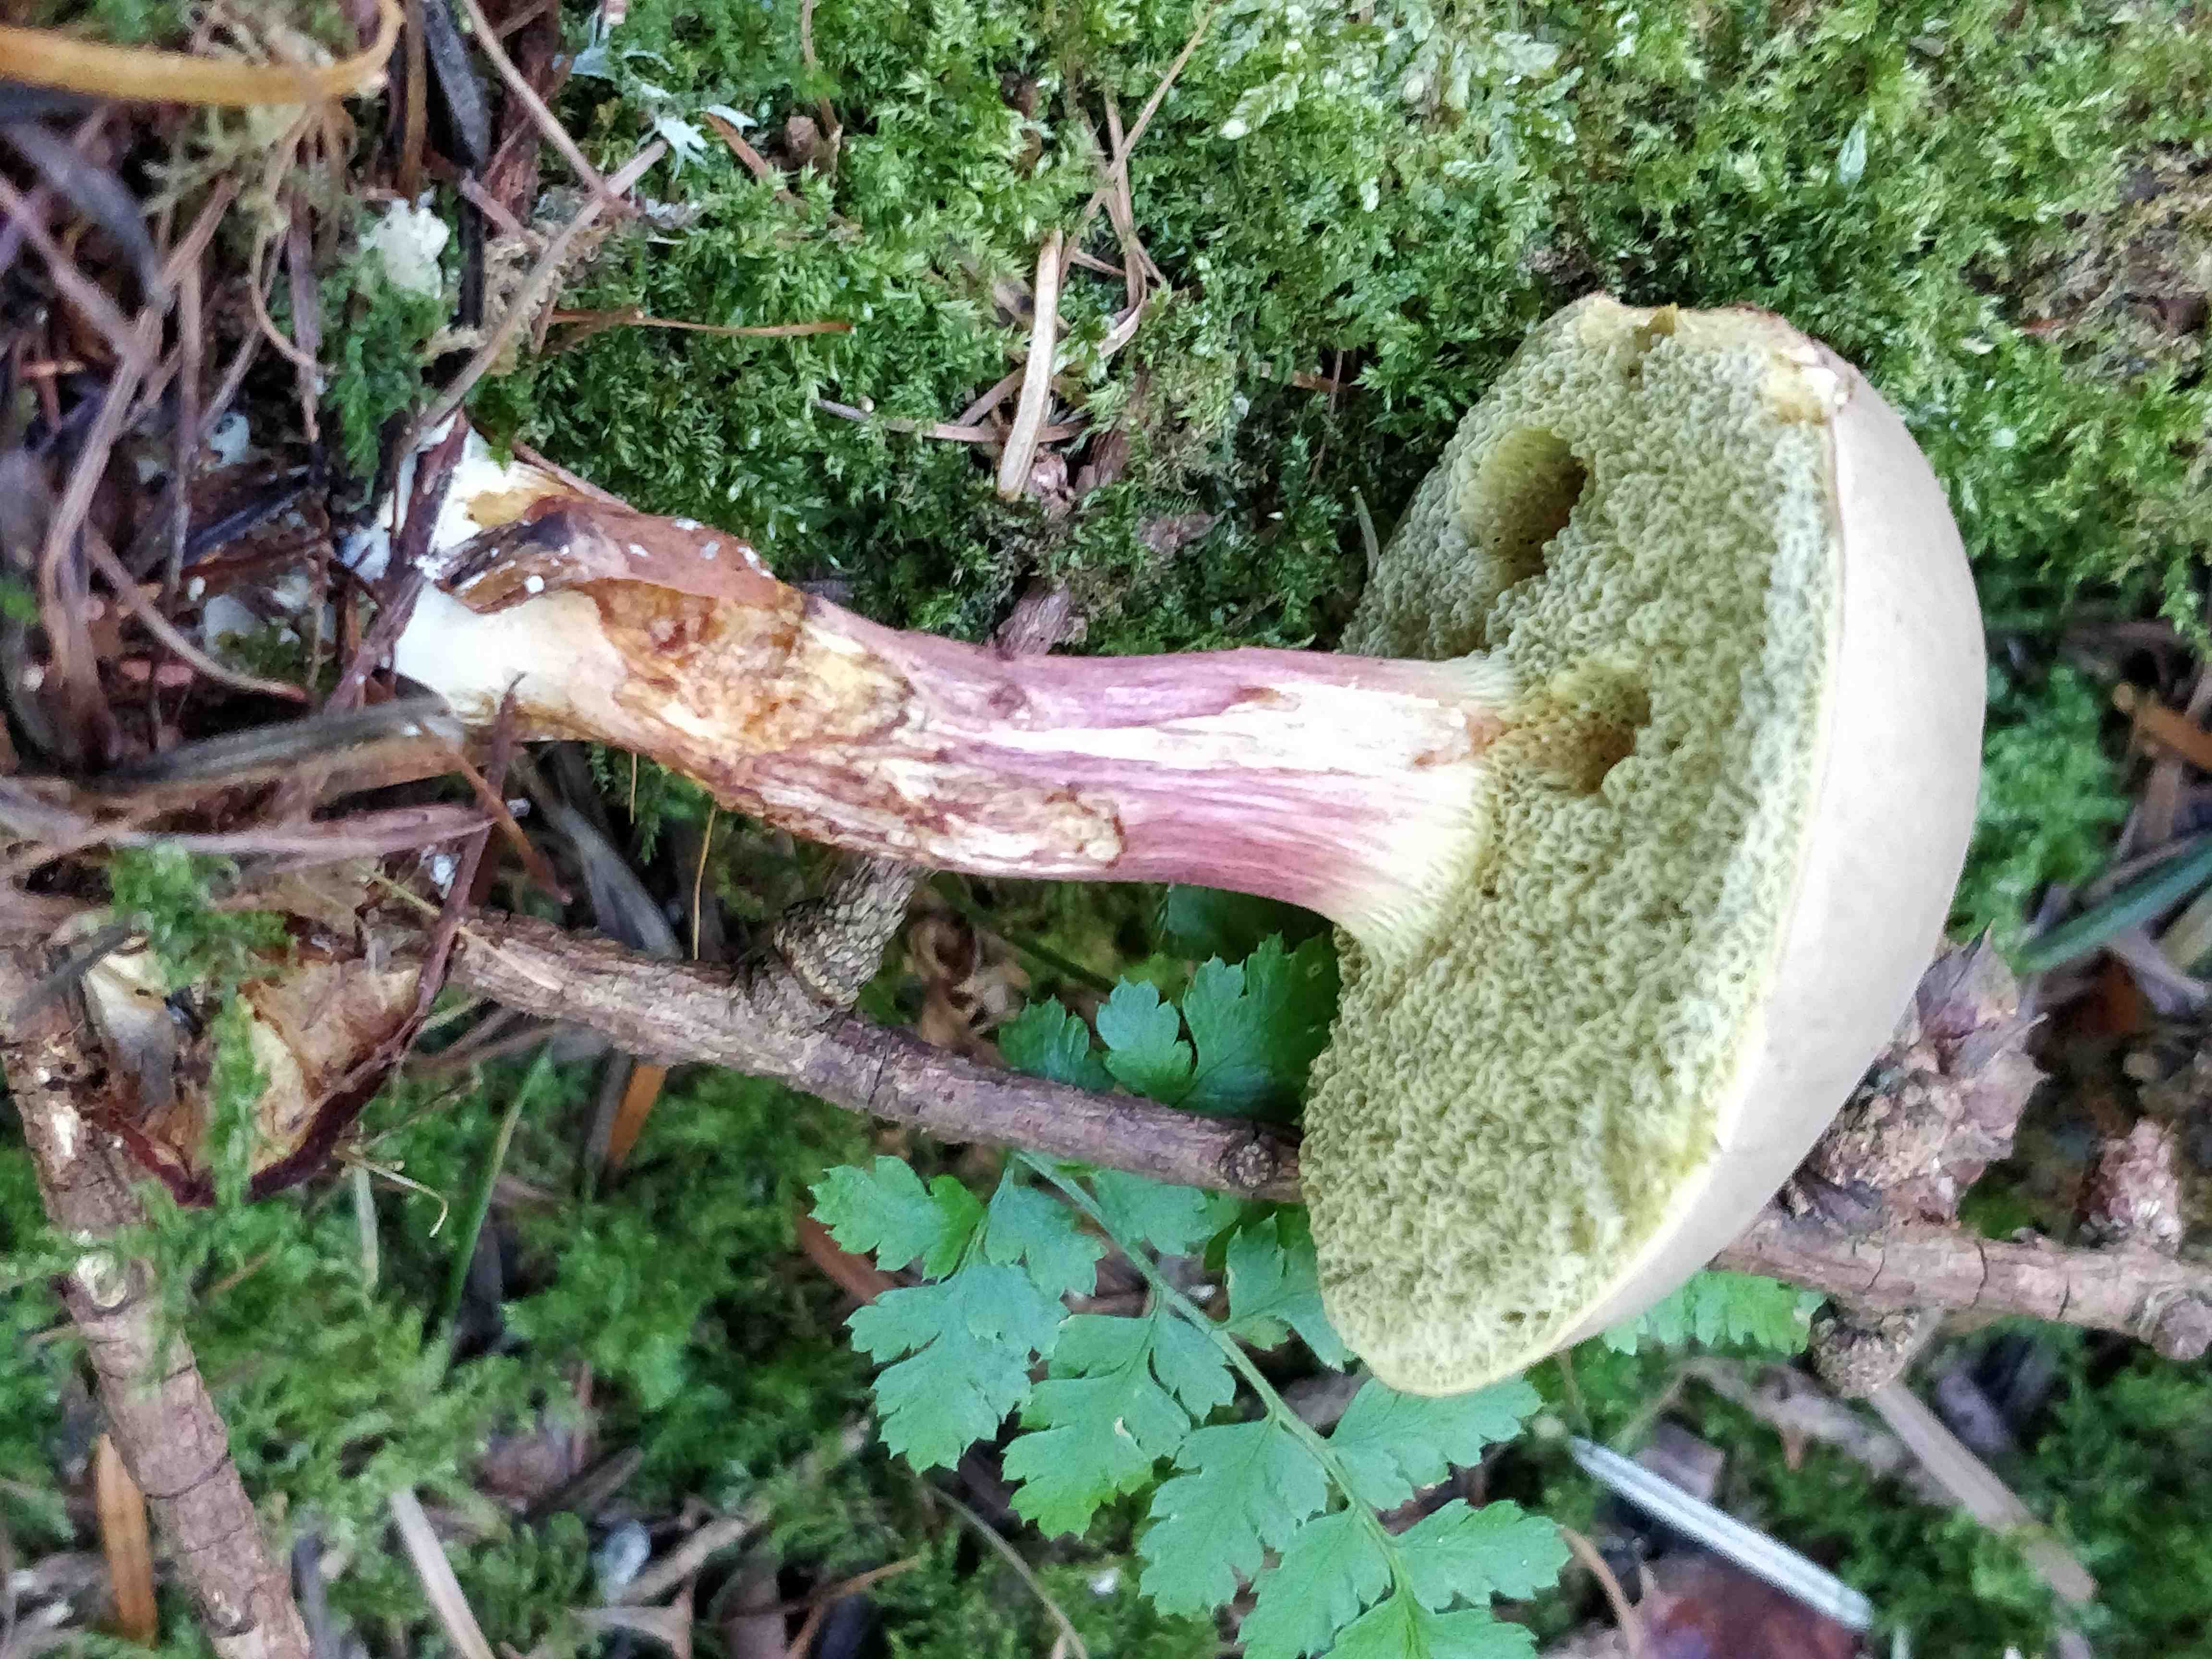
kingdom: Fungi
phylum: Basidiomycota
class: Agaricomycetes
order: Boletales
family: Boletaceae
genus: Xerocomellus
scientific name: Xerocomellus
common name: dværgrørhat
